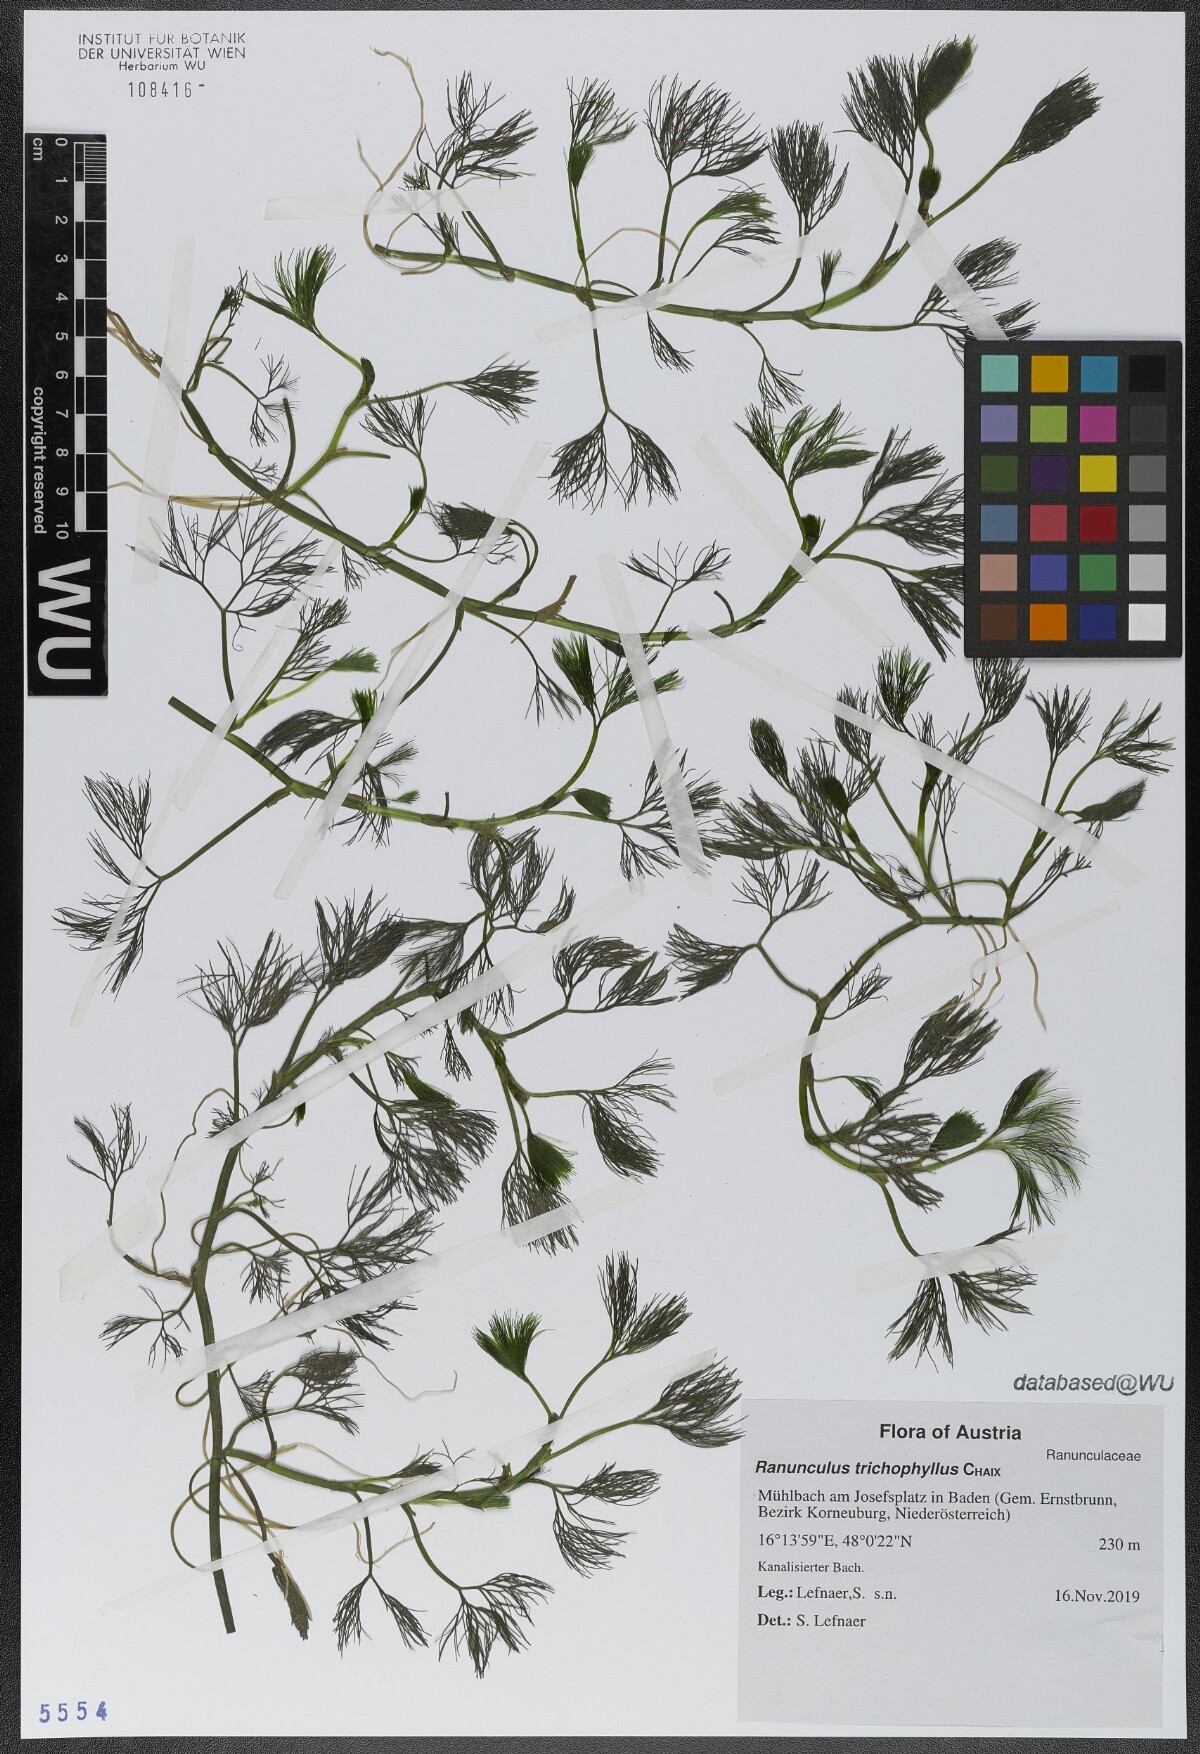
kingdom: Plantae
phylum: Tracheophyta
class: Magnoliopsida
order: Ranunculales
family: Ranunculaceae
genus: Ranunculus
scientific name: Ranunculus trichophyllus
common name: Thread-leaved water-crowfoot
